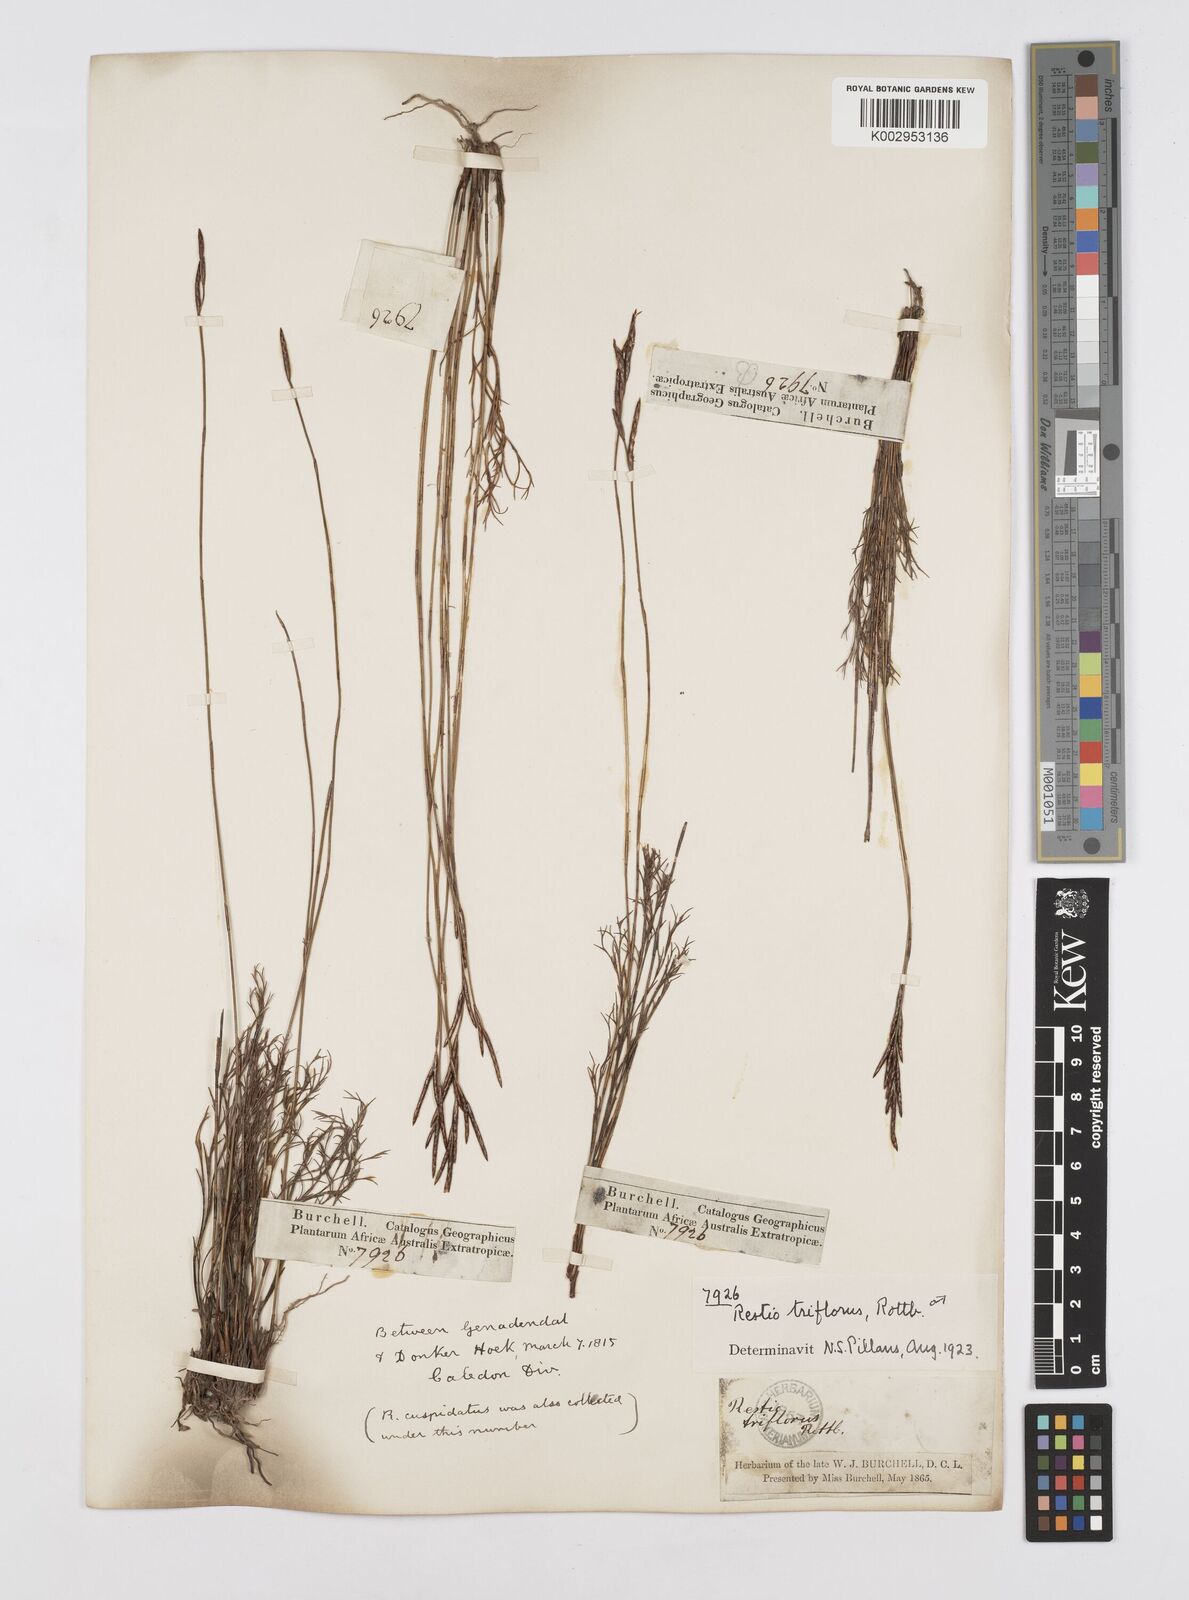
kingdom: Plantae
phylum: Tracheophyta
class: Liliopsida
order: Poales
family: Restionaceae
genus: Restio
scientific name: Restio triflorus
